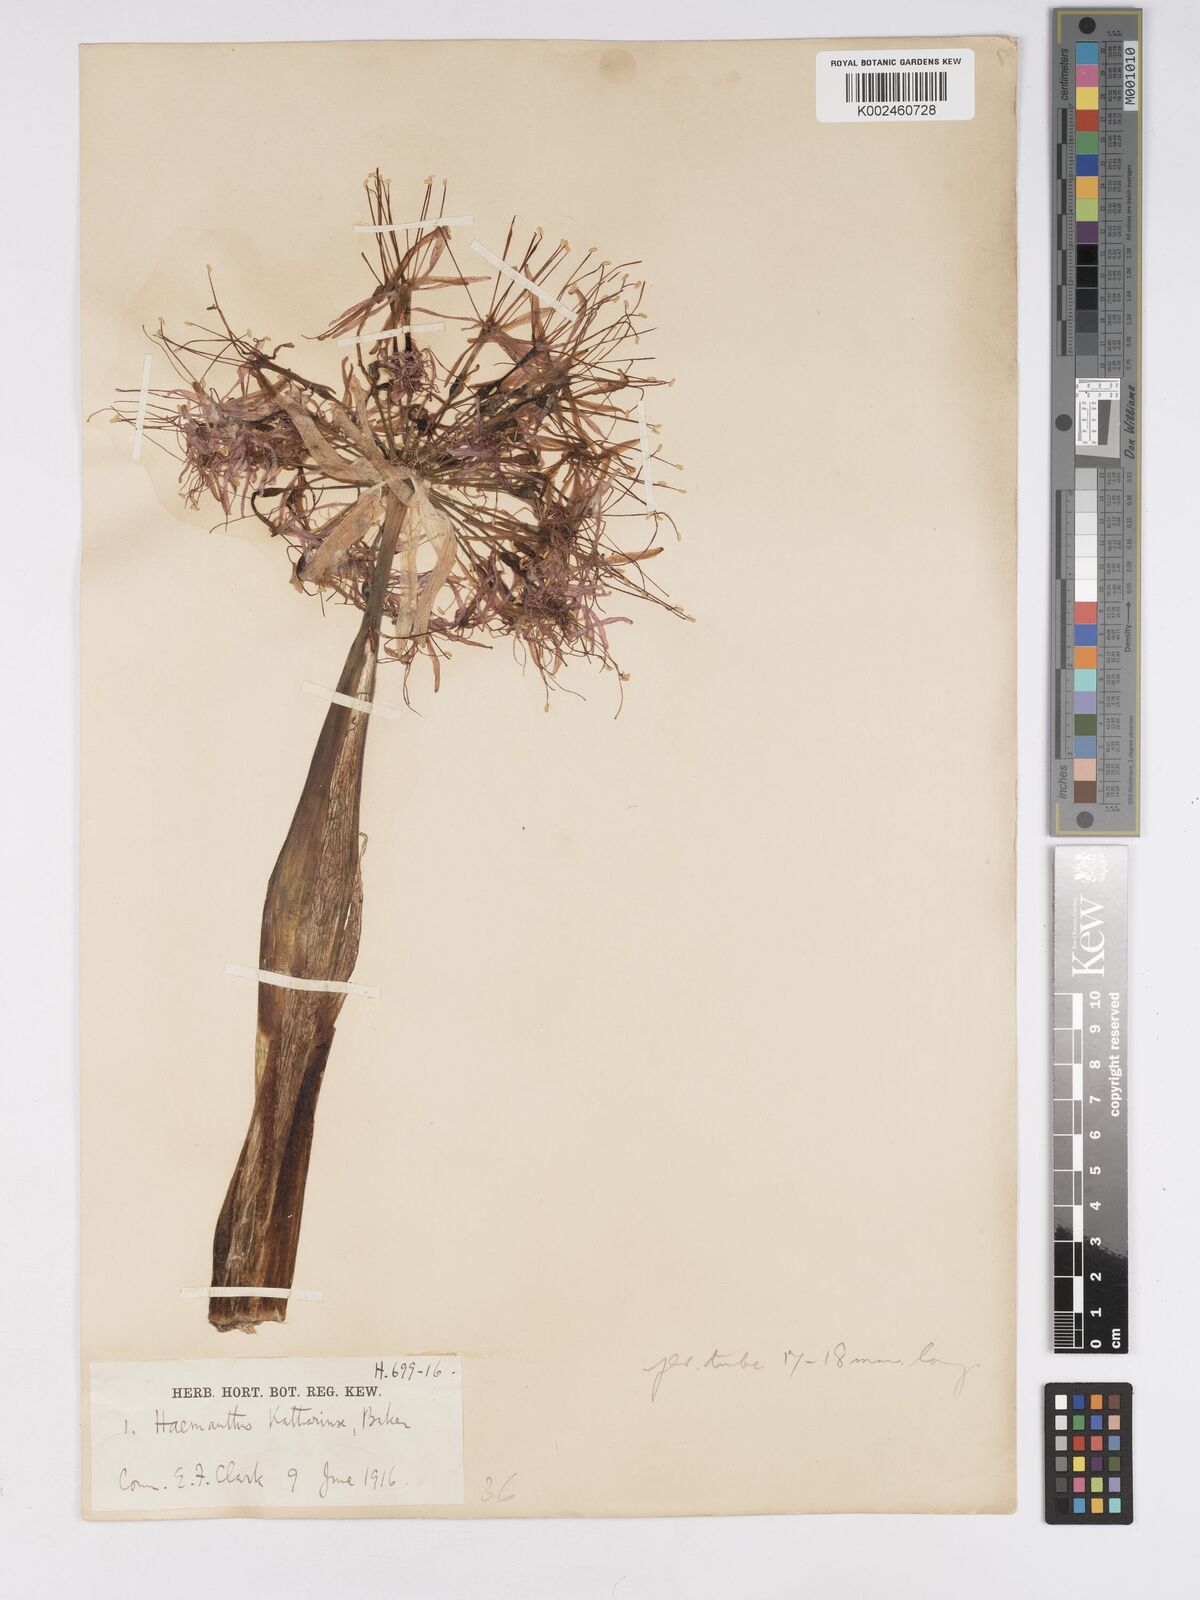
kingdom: Plantae
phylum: Tracheophyta
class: Liliopsida
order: Asparagales
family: Amaryllidaceae
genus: Scadoxus
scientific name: Scadoxus multiflorus
